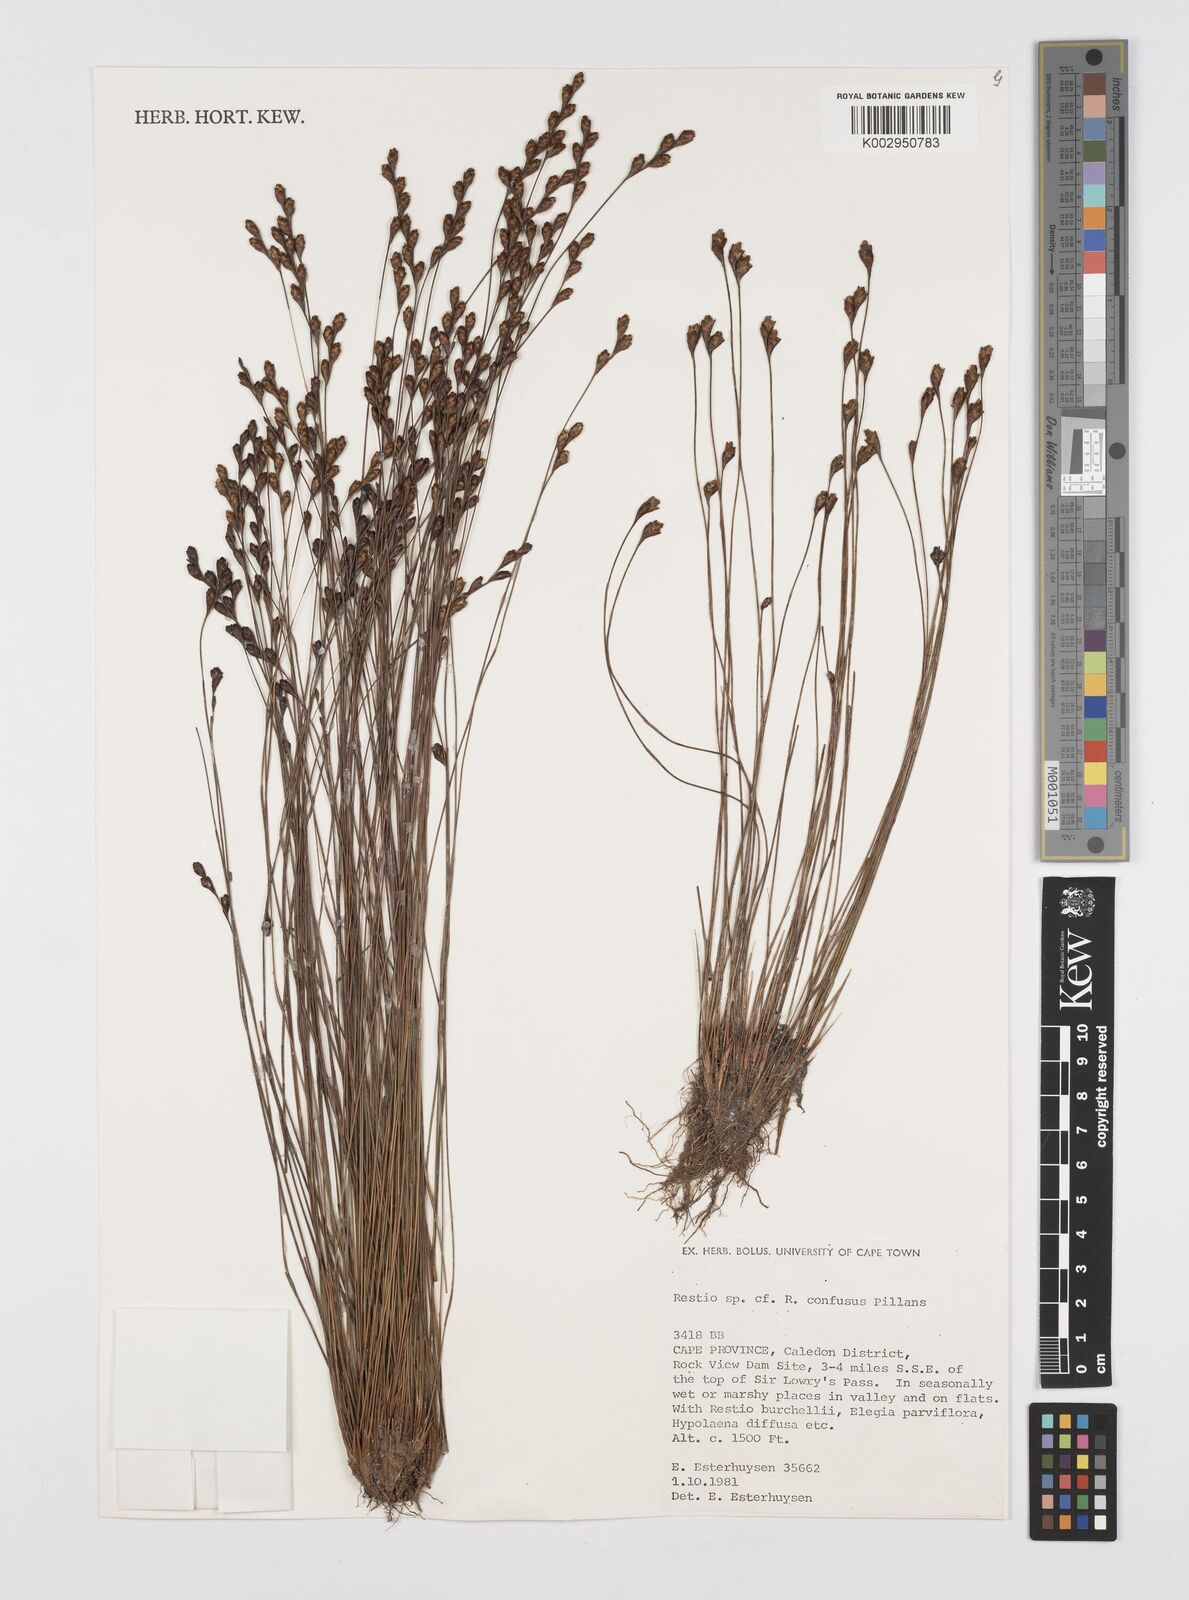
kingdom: Plantae
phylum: Tracheophyta
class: Liliopsida
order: Poales
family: Restionaceae
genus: Restio
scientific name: Restio confusus
